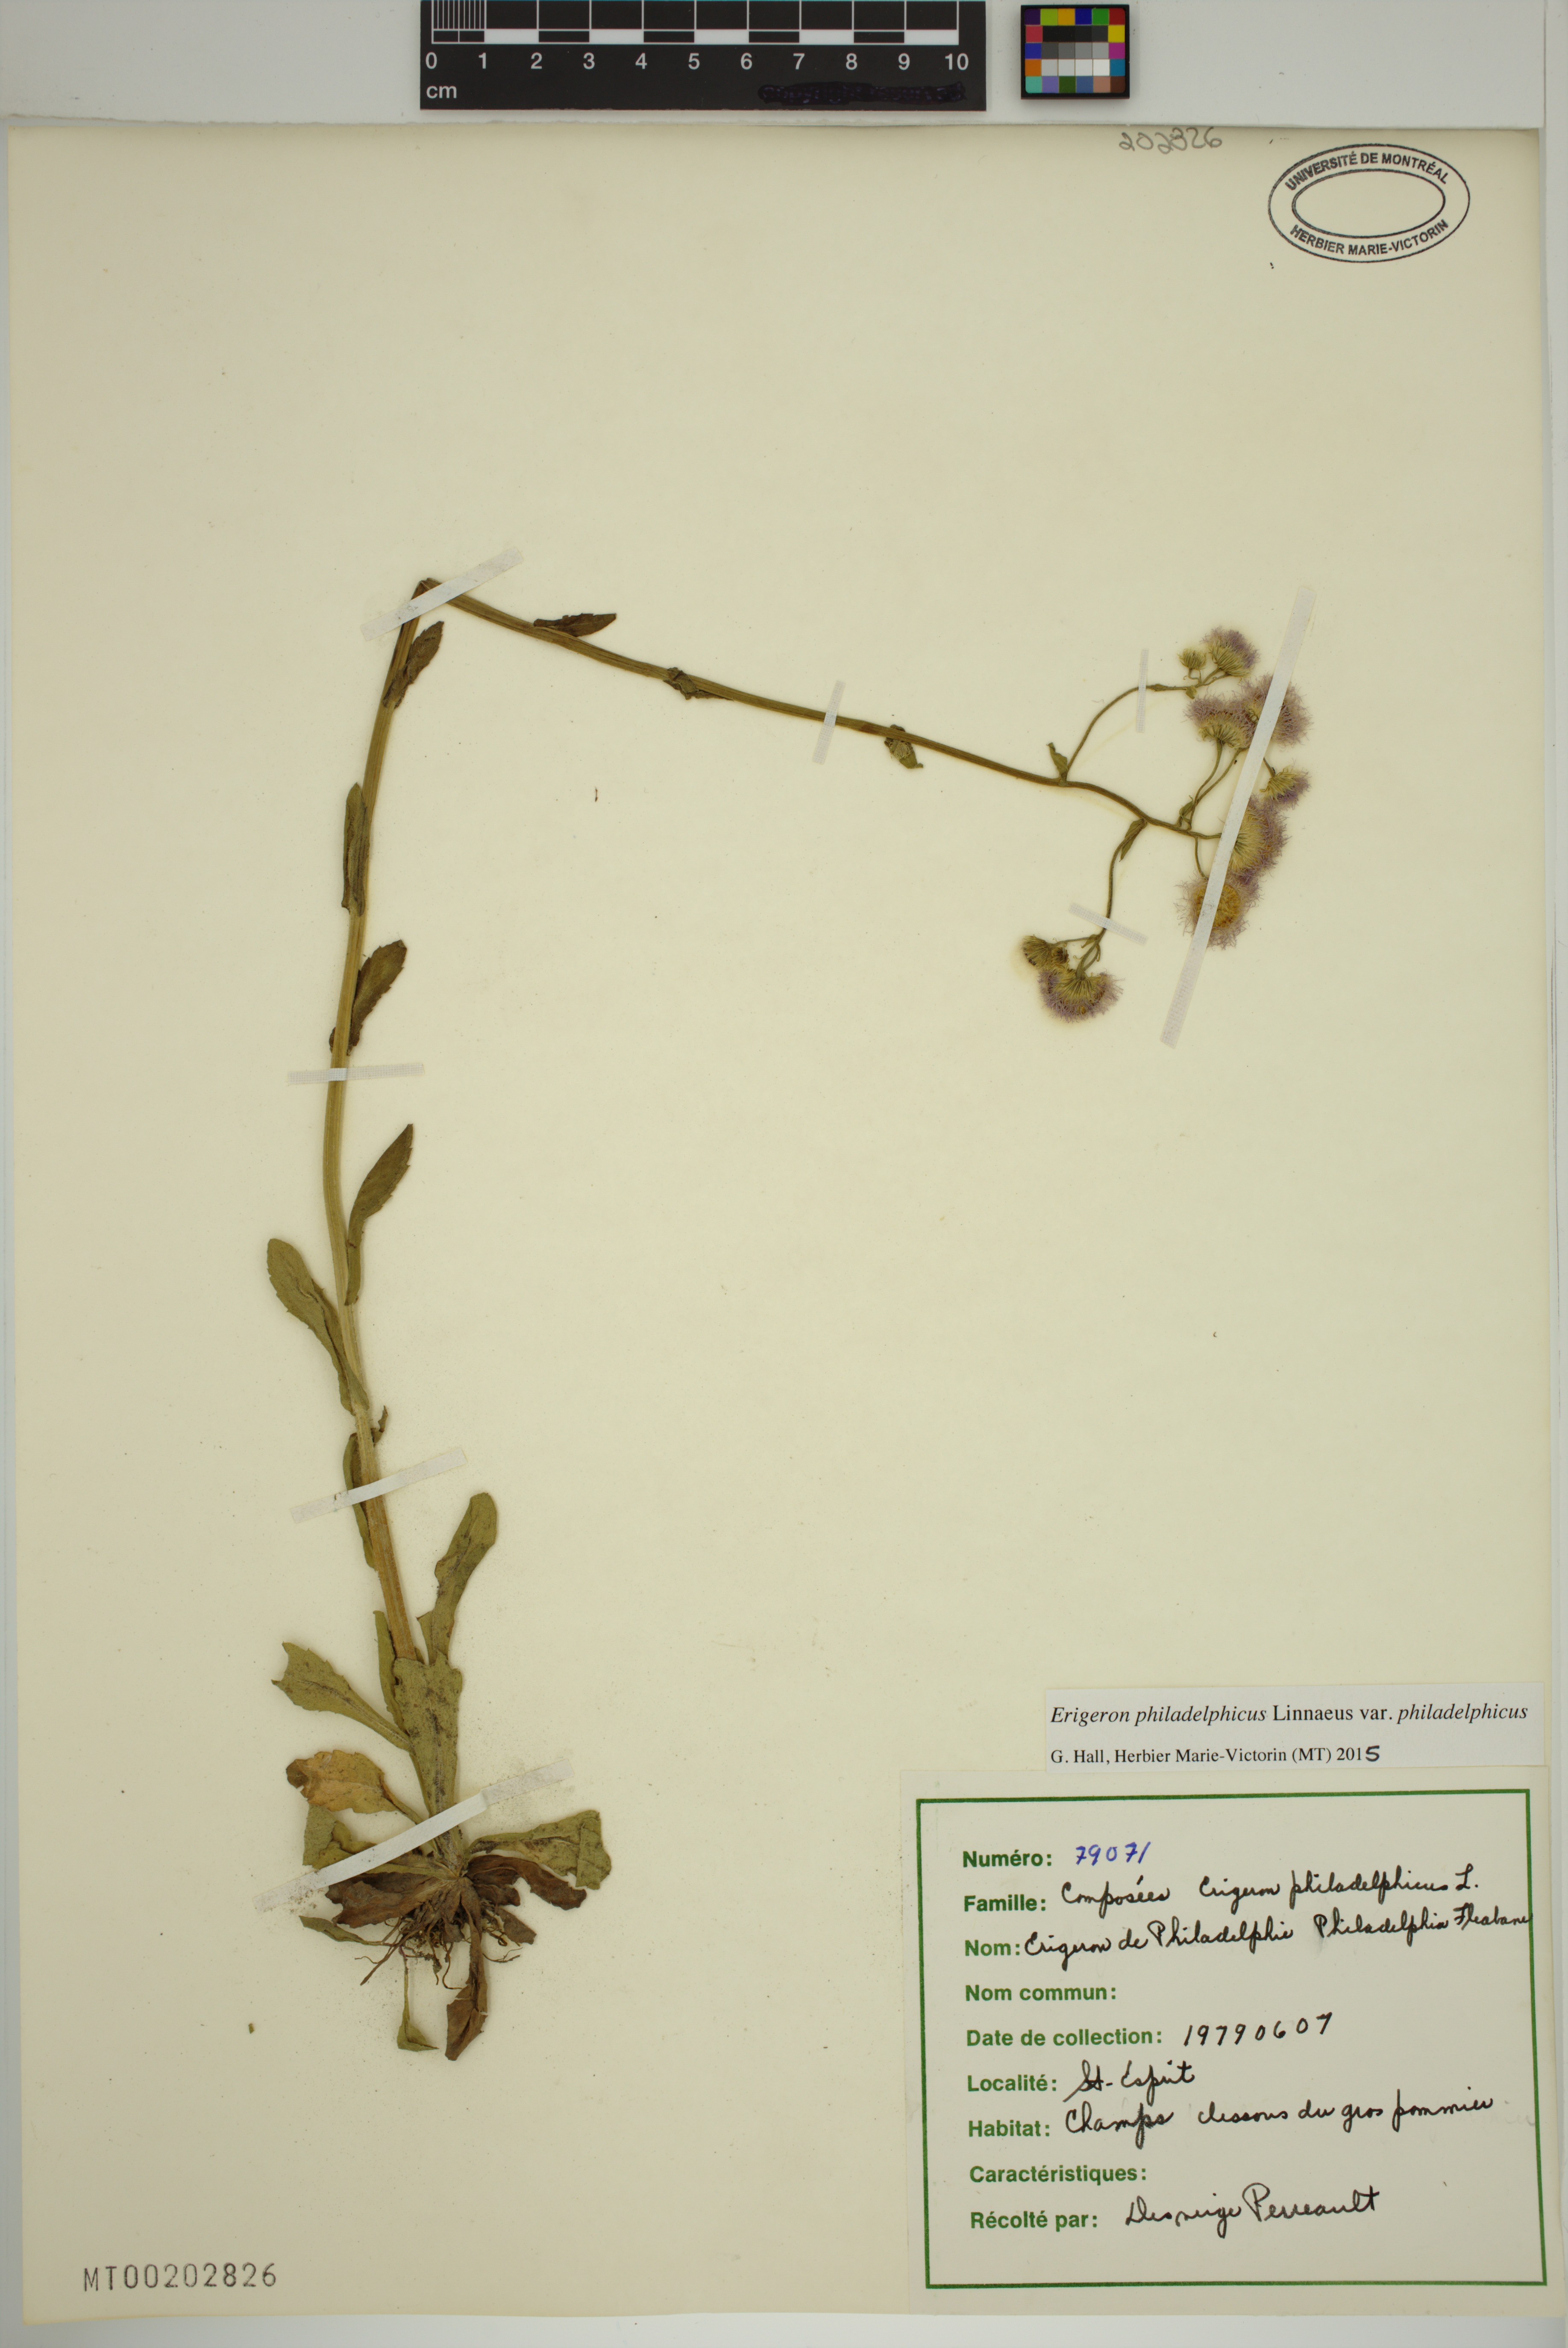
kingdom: Plantae
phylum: Tracheophyta
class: Magnoliopsida
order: Asterales
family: Asteraceae
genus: Erigeron
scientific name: Erigeron philadelphicus
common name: Robin's-plantain
